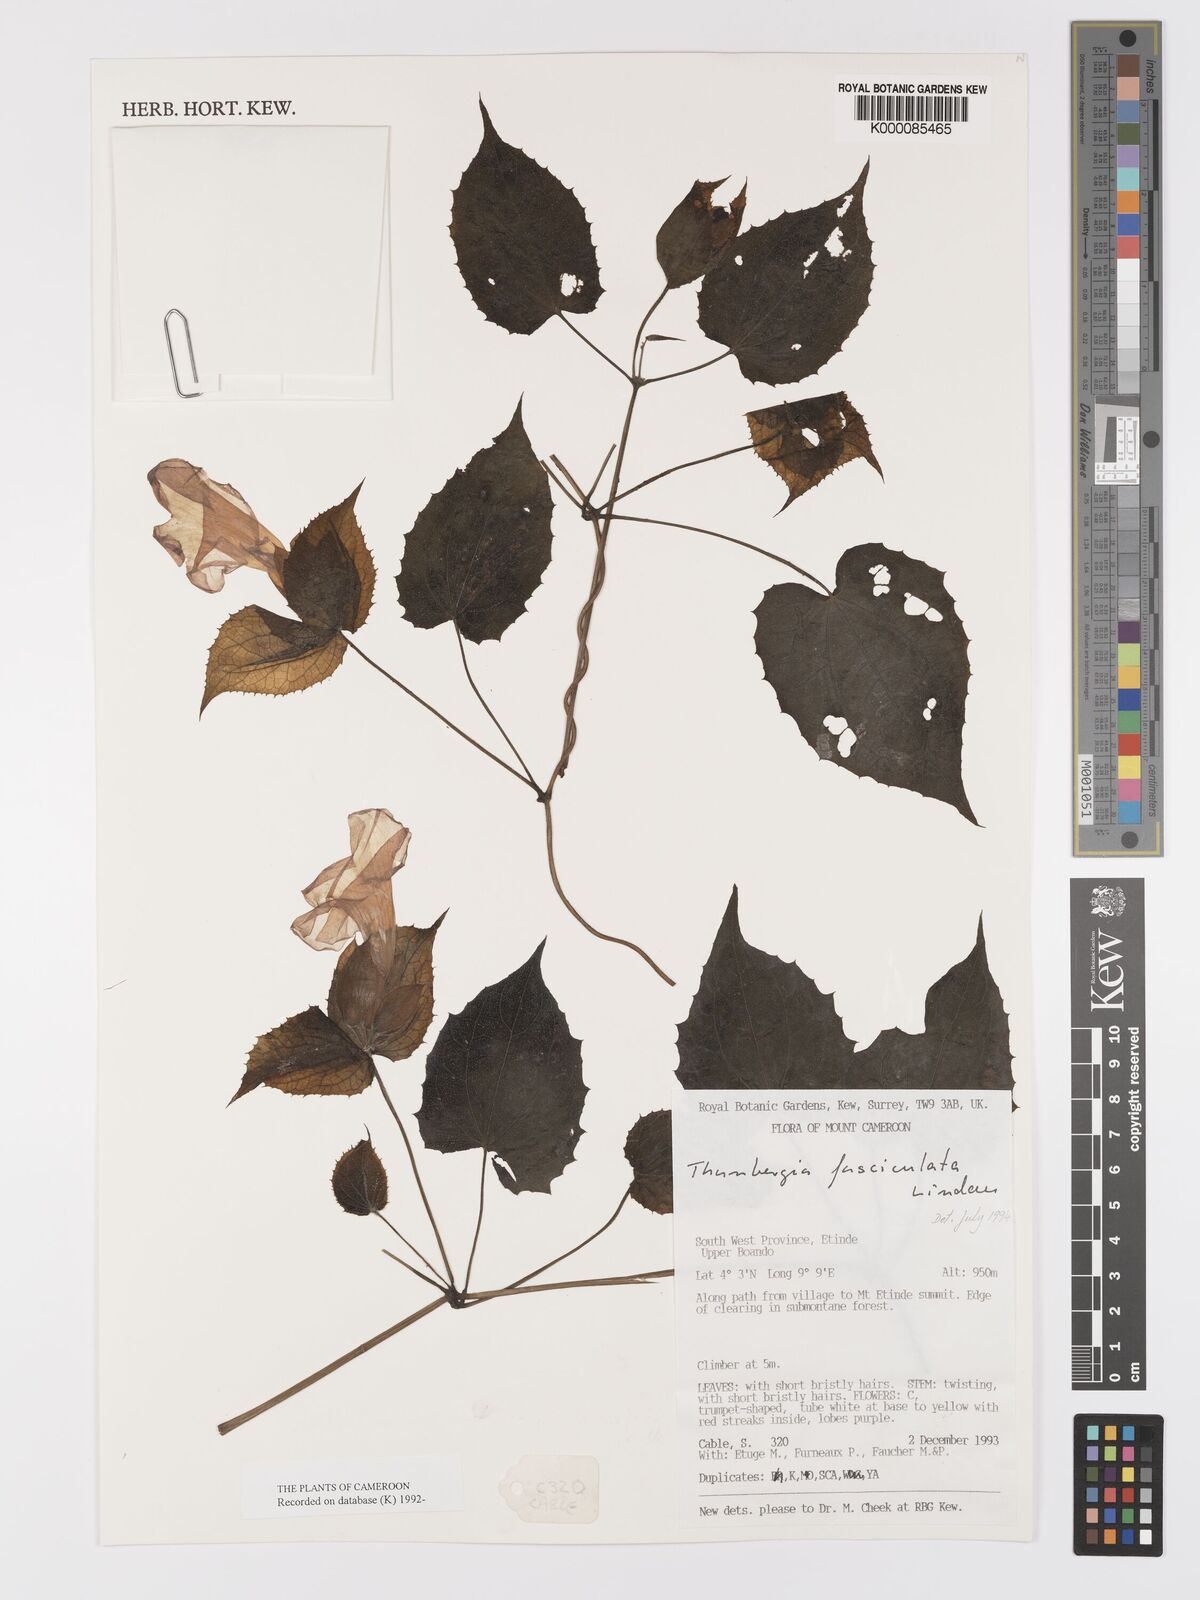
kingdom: Plantae
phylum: Tracheophyta
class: Magnoliopsida
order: Lamiales
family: Acanthaceae
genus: Thunbergia
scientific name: Thunbergia vogeliana
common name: Acanthaceae
